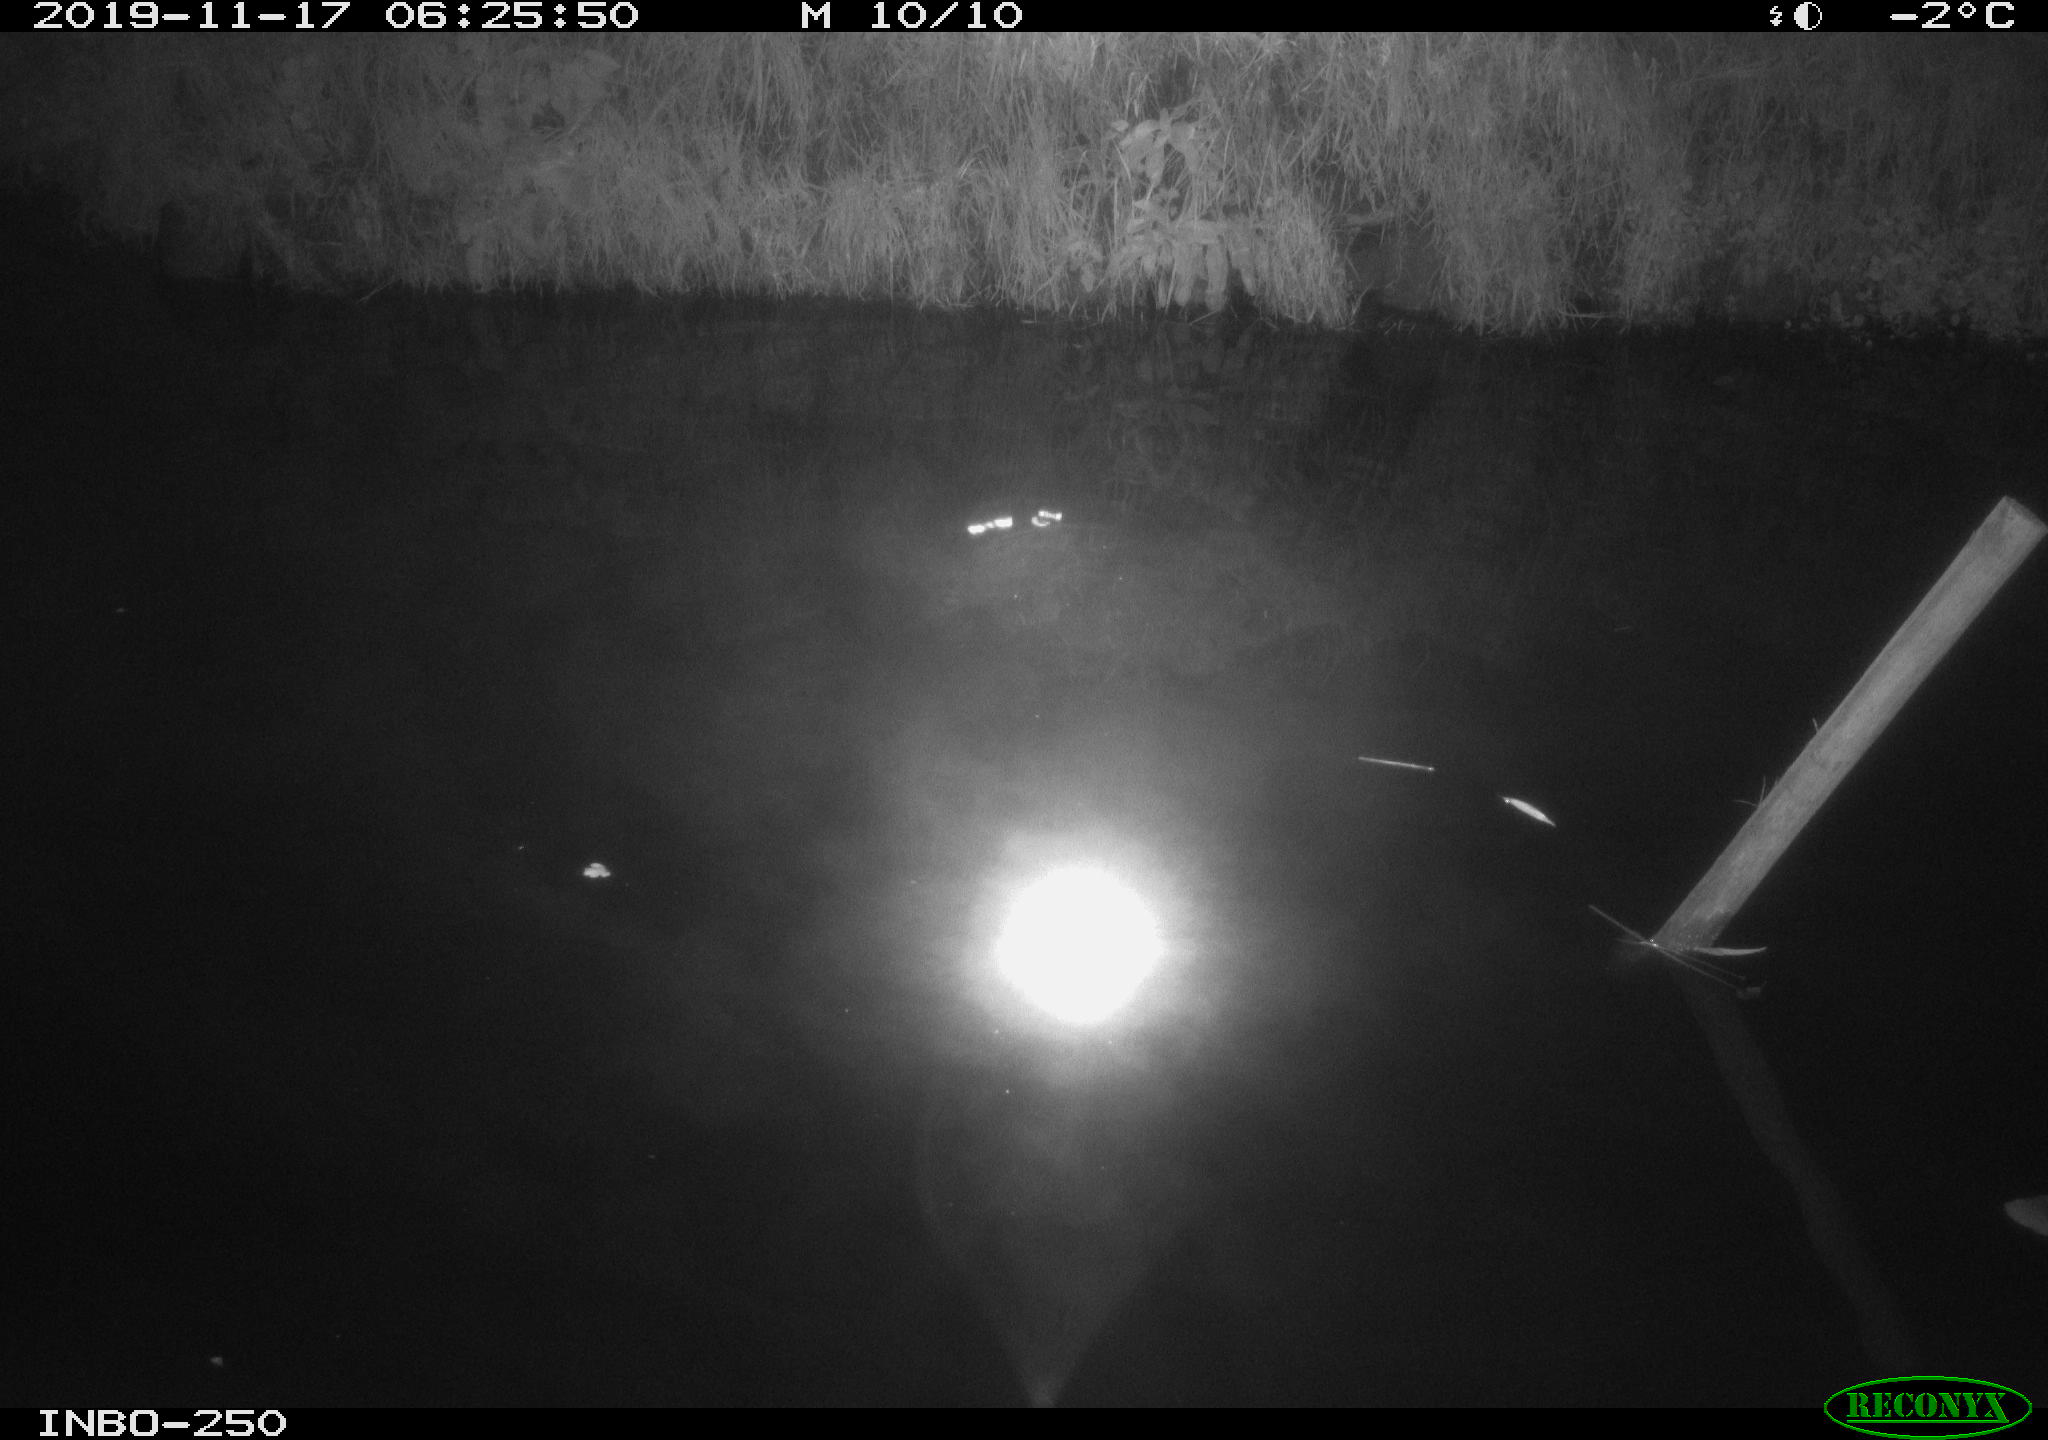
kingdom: Animalia
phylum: Chordata
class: Aves
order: Anseriformes
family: Anatidae
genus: Anas
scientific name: Anas platyrhynchos
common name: Mallard
